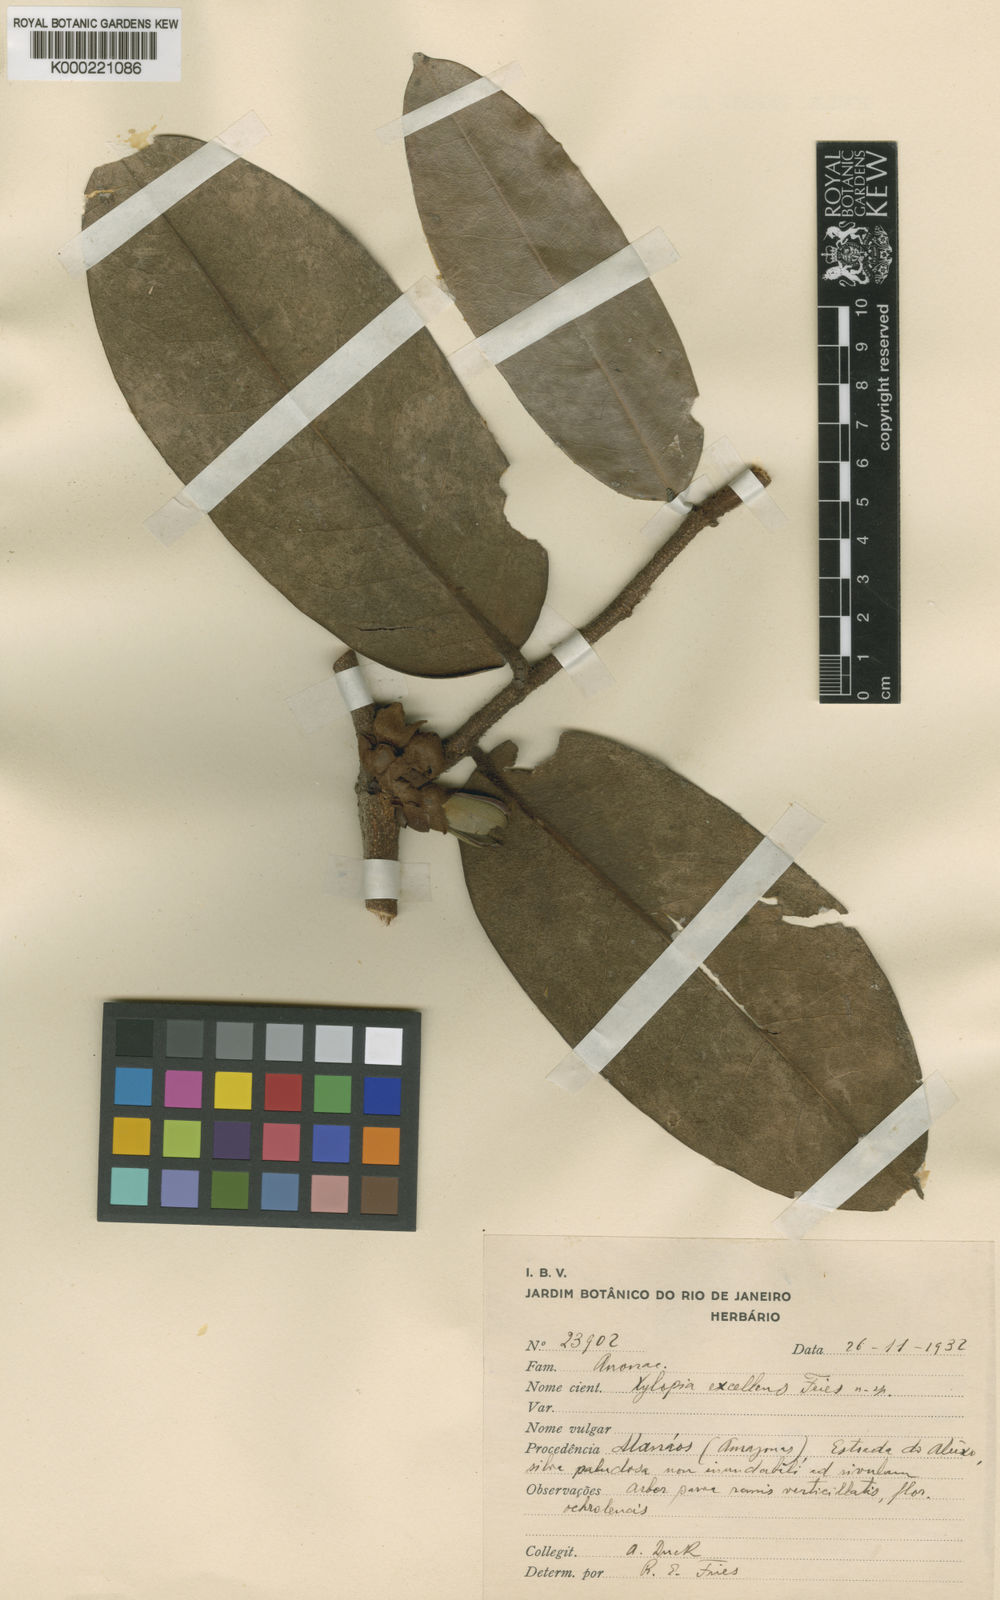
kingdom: Plantae
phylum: Tracheophyta
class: Magnoliopsida
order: Magnoliales
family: Annonaceae
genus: Xylopia
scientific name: Xylopia excellens
